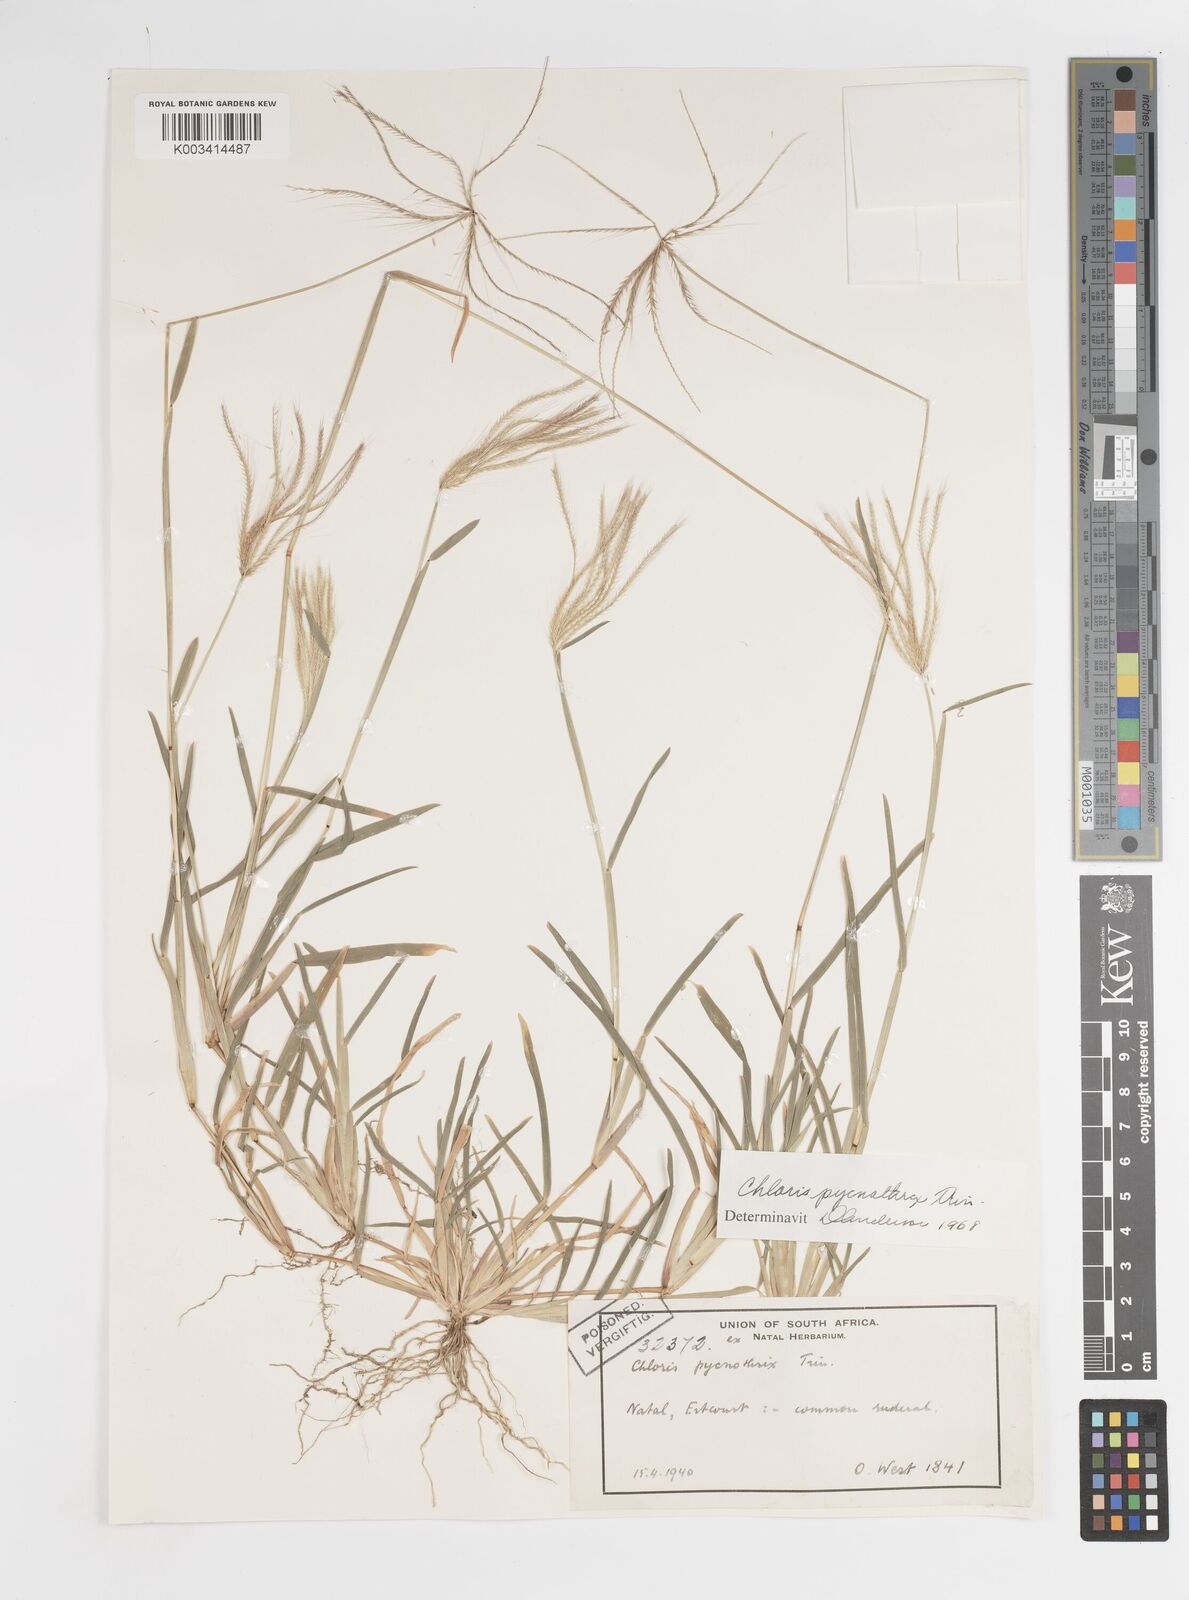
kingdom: Plantae
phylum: Tracheophyta
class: Liliopsida
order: Poales
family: Poaceae
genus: Chloris
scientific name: Chloris pycnothrix
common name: Spiderweb chloris
